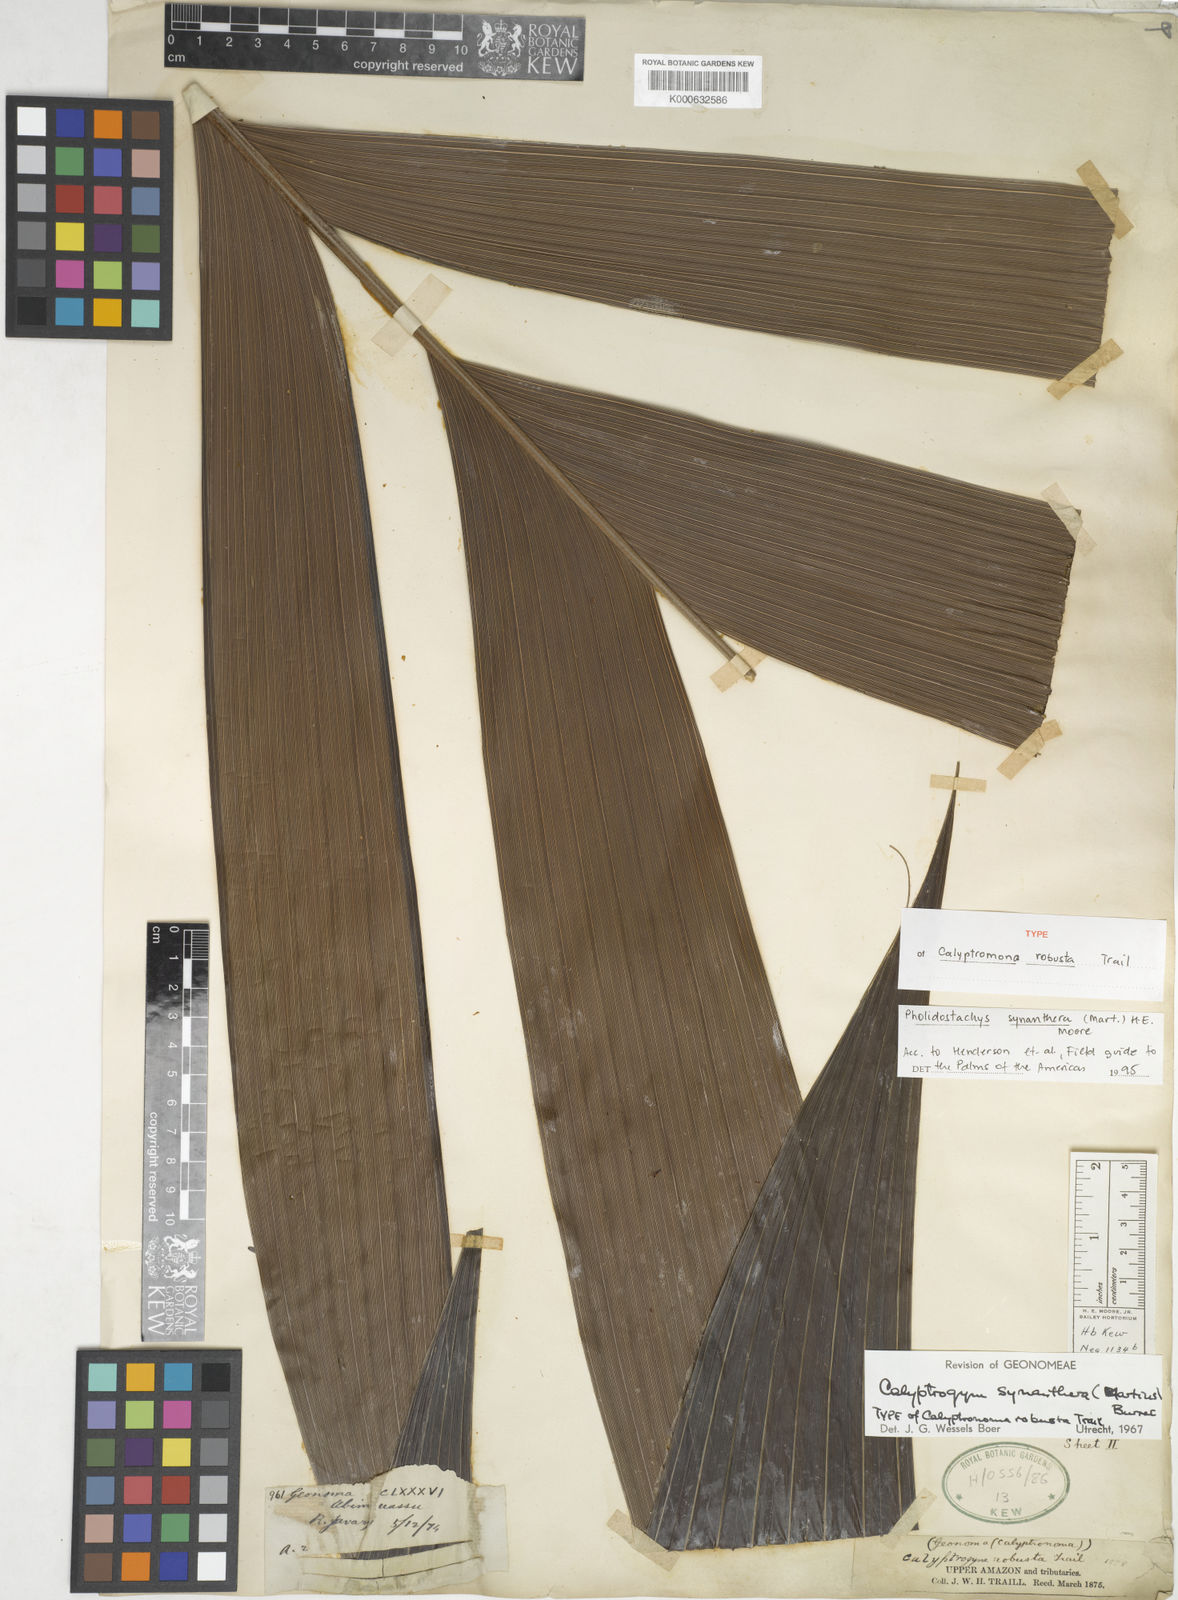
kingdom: Plantae
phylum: Tracheophyta
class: Liliopsida
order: Arecales
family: Arecaceae
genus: Pholidostachys
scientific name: Pholidostachys synanthera
